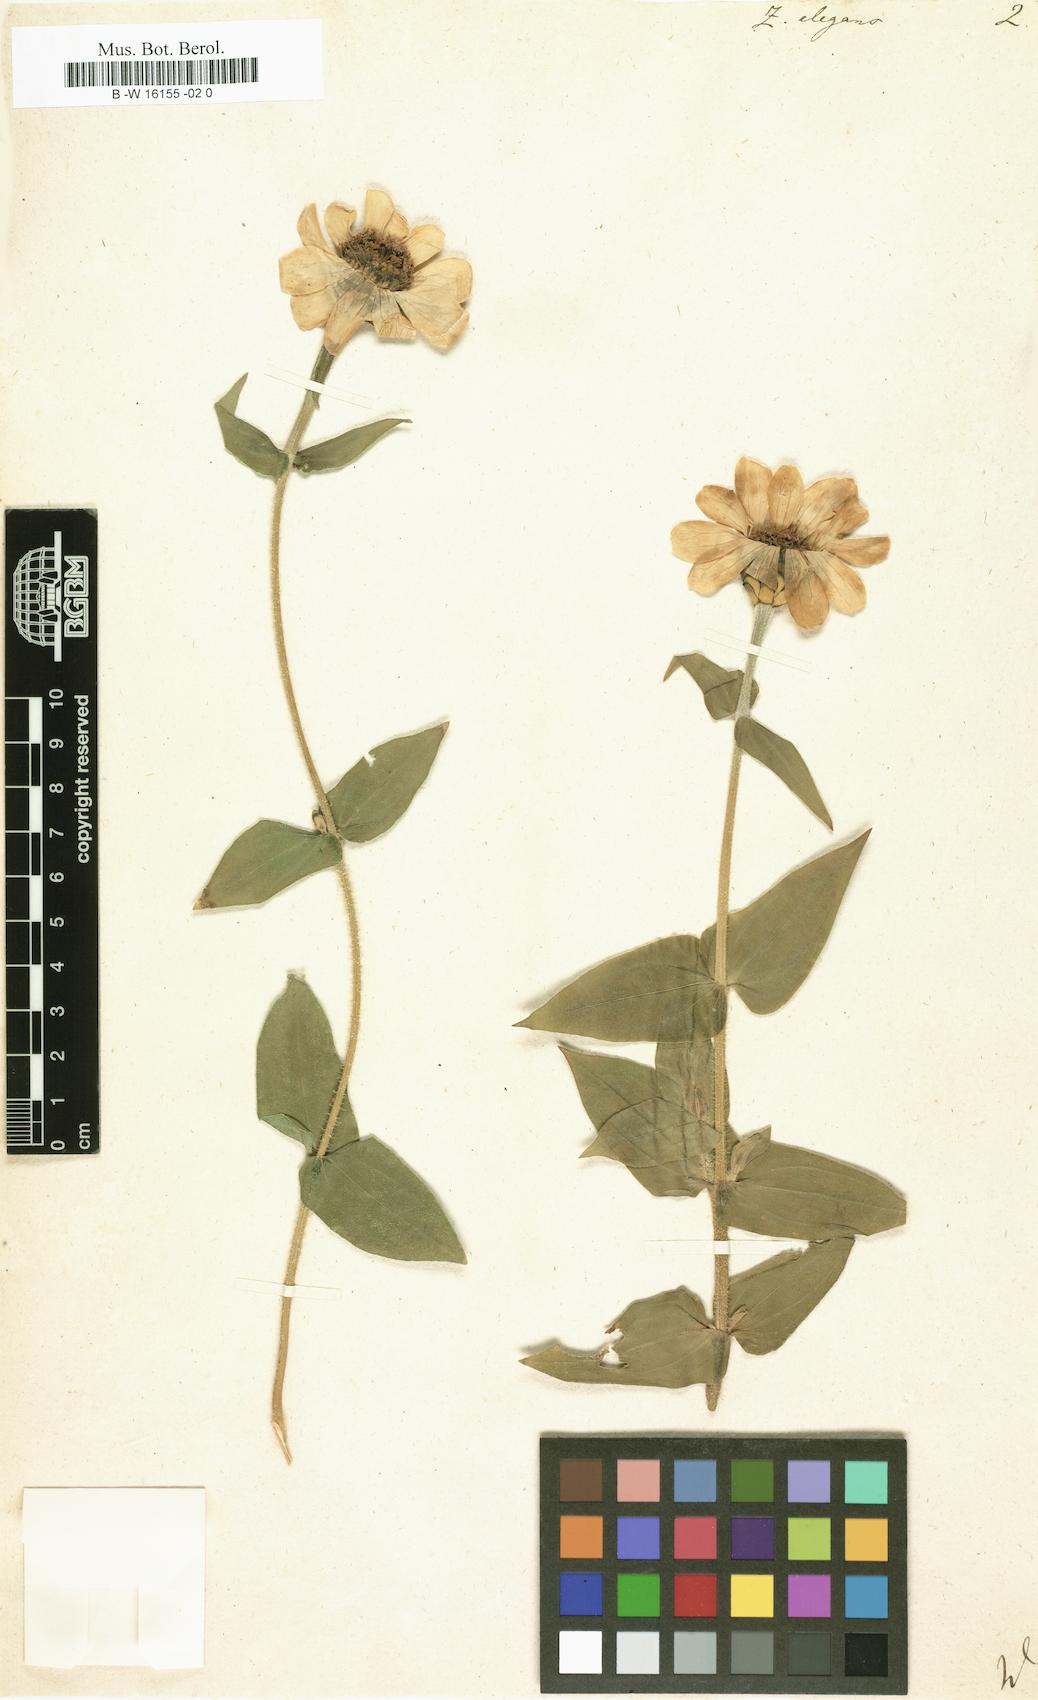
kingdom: Plantae
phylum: Tracheophyta
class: Magnoliopsida
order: Asterales
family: Asteraceae
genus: Zinnia
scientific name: Zinnia elegans
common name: Youth-and-age
